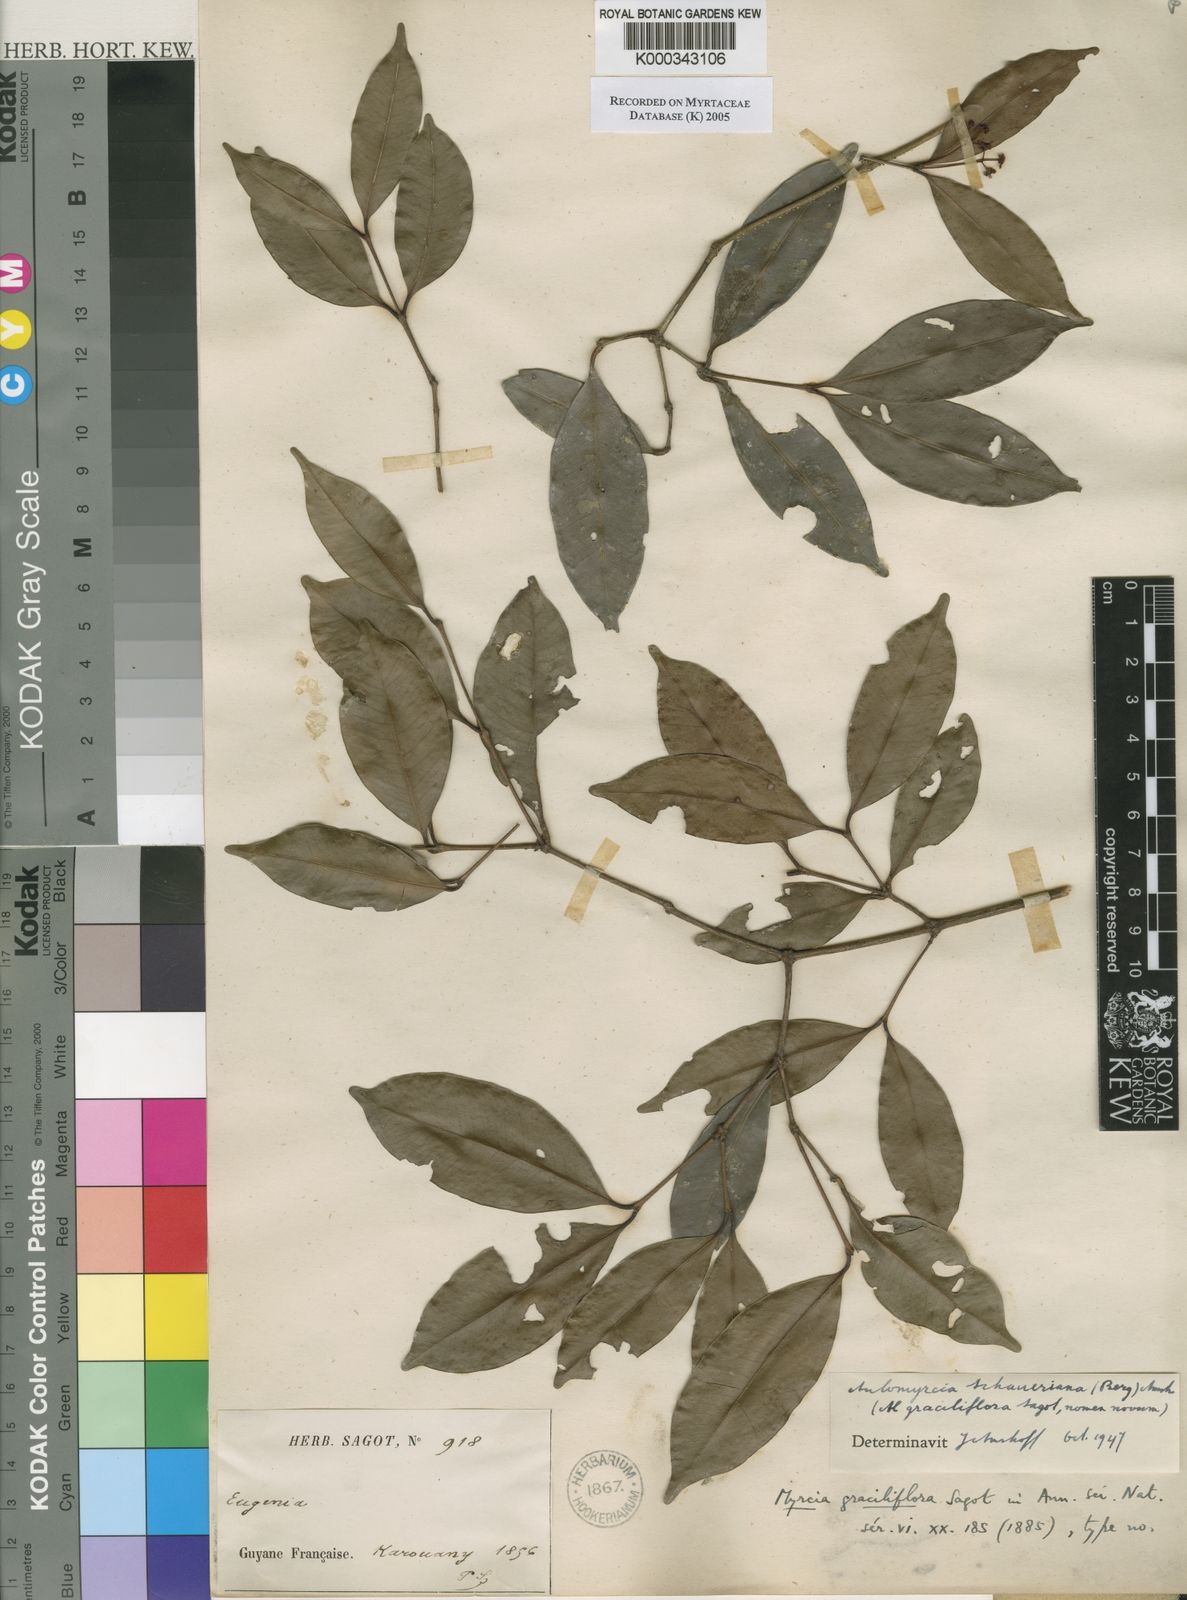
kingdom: Plantae
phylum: Tracheophyta
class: Magnoliopsida
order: Myrtales
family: Myrtaceae
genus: Myrcia
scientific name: Myrcia graciliflora
